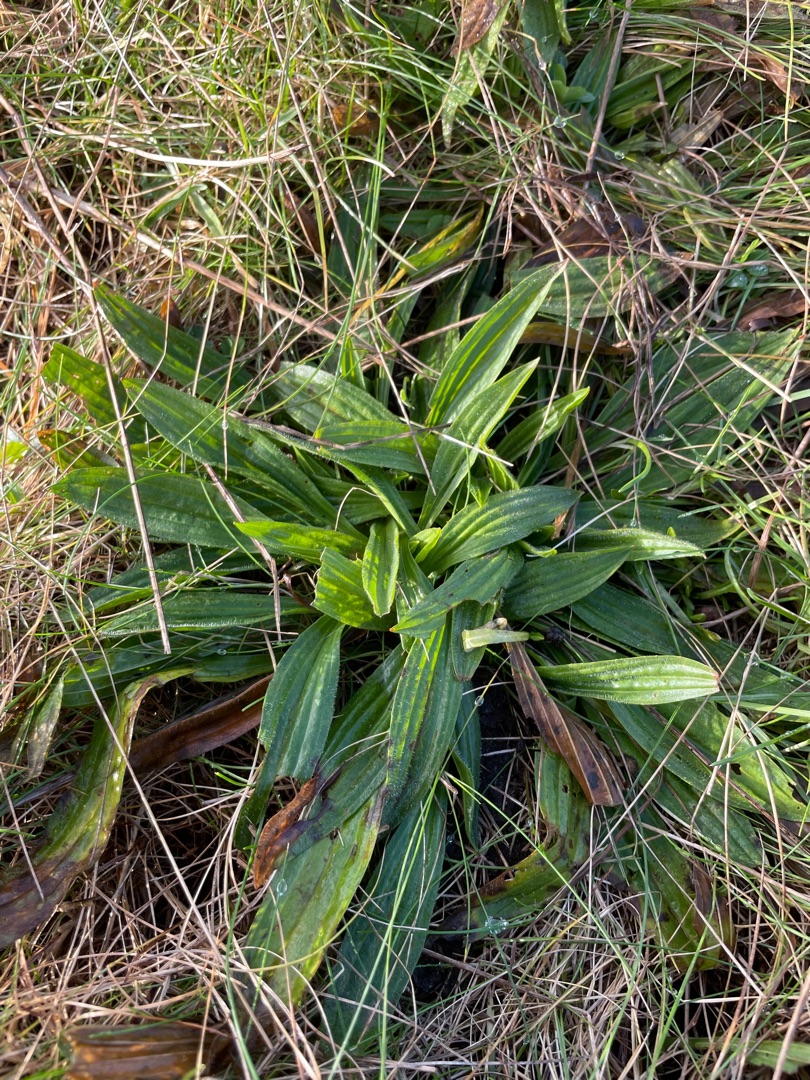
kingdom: Plantae
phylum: Tracheophyta
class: Magnoliopsida
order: Lamiales
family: Plantaginaceae
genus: Plantago
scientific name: Plantago lanceolata
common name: Lancet-vejbred
